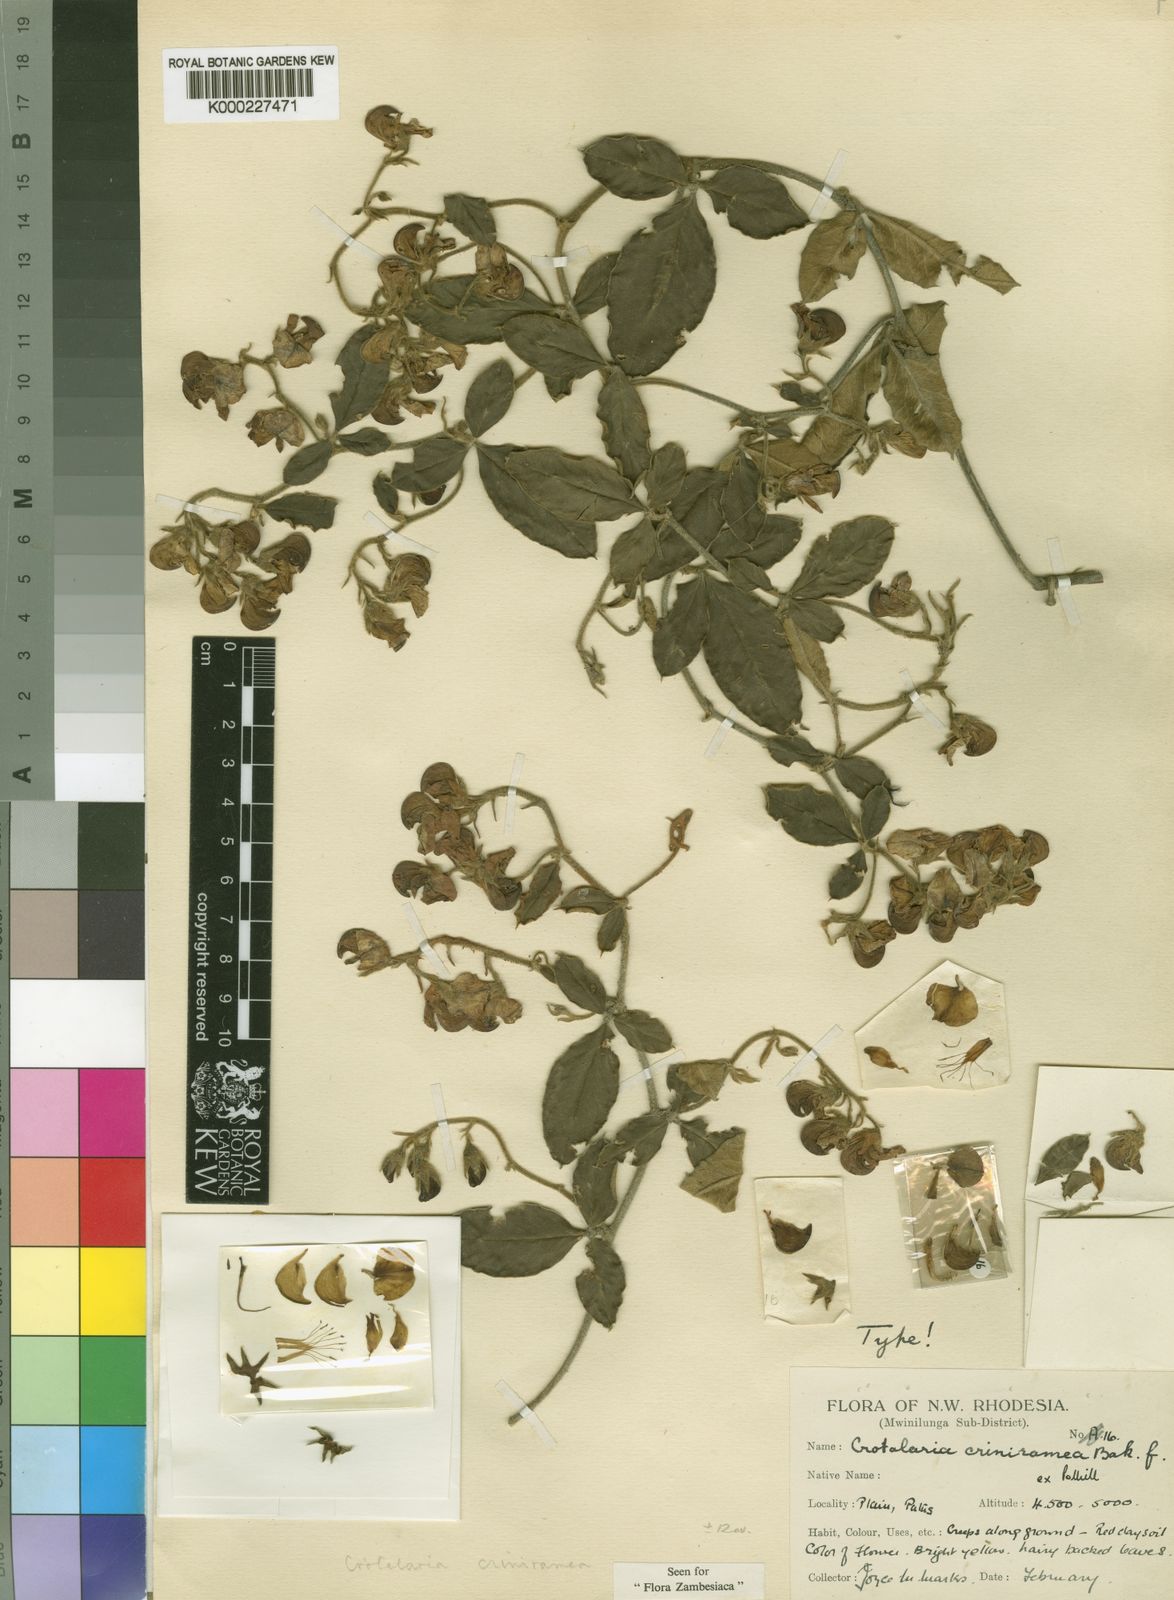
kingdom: Plantae
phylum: Tracheophyta
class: Magnoliopsida
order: Fabales
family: Fabaceae
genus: Crotalaria
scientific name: Crotalaria criniramea ex
